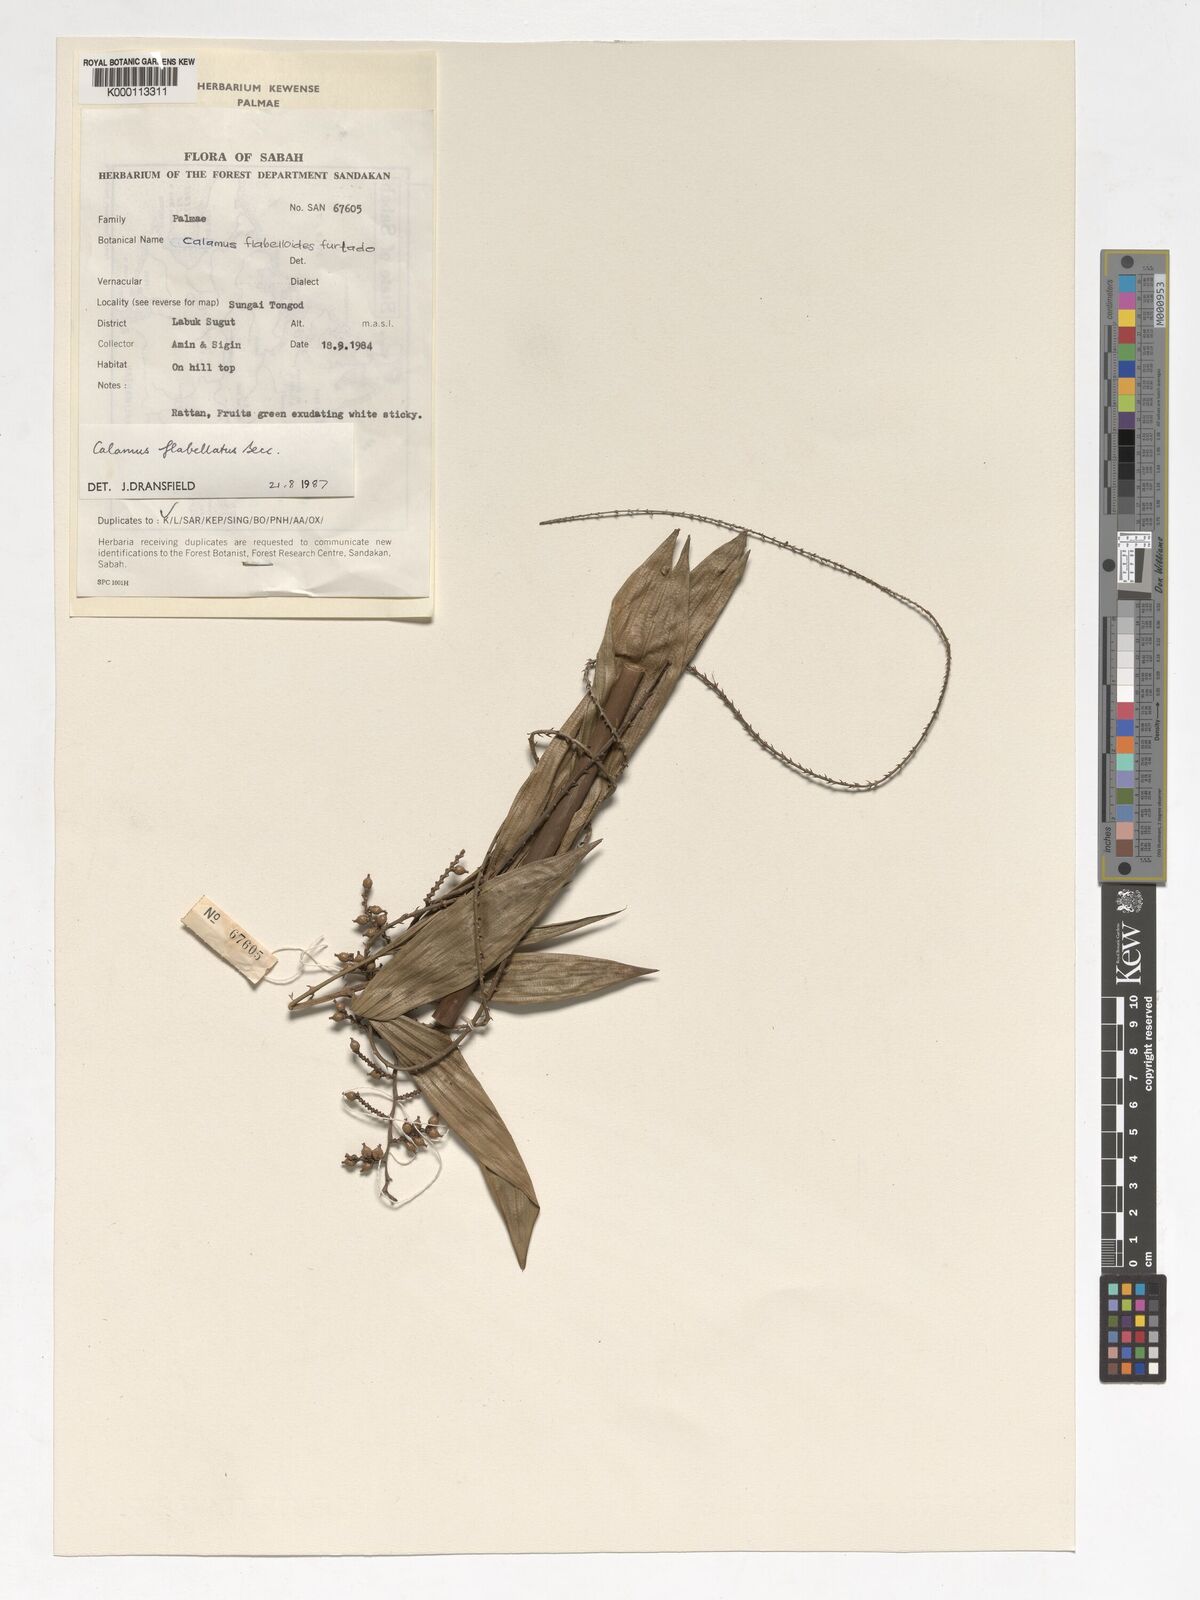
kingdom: Plantae
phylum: Tracheophyta
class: Liliopsida
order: Arecales
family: Arecaceae
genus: Calamus
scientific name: Calamus flabellatus
